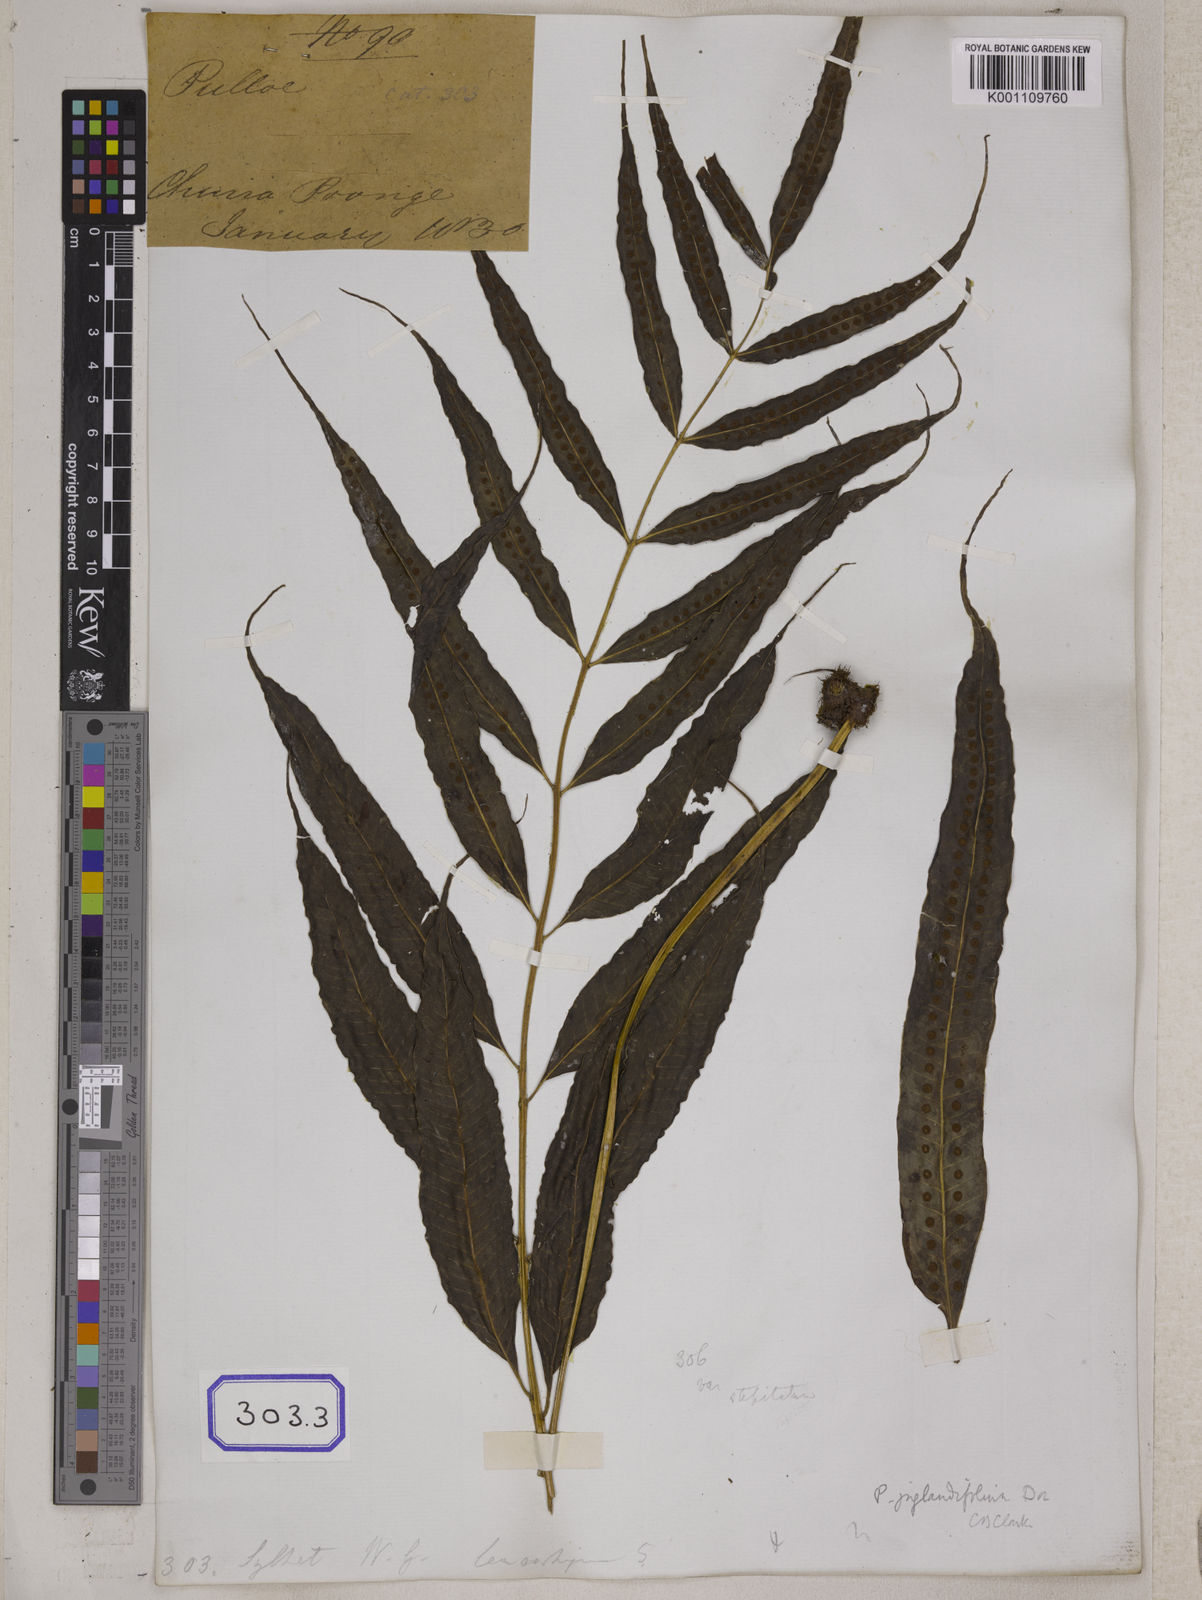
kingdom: Plantae
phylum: Tracheophyta
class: Polypodiopsida
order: Polypodiales
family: Polypodiaceae
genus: Microsorum
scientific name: Microsorum cuspidatum
